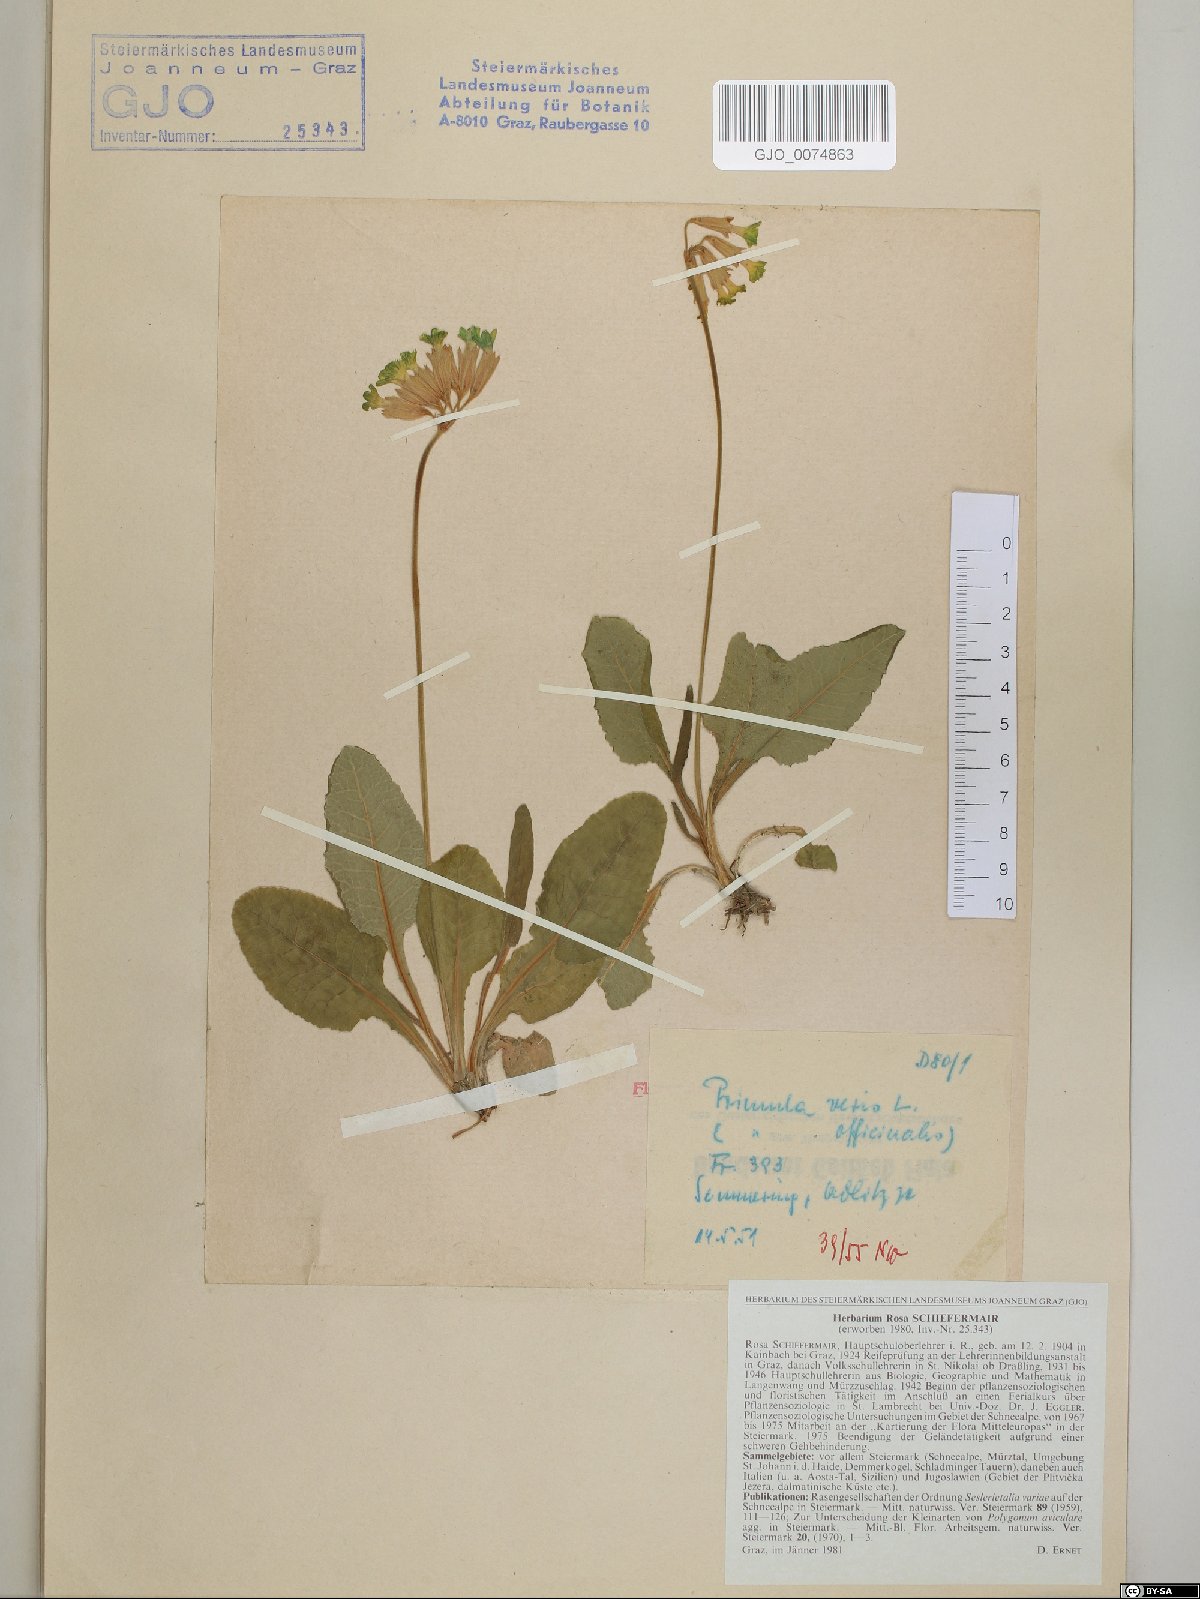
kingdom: Plantae
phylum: Tracheophyta
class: Magnoliopsida
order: Ericales
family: Primulaceae
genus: Primula
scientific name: Primula veris
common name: Cowslip
